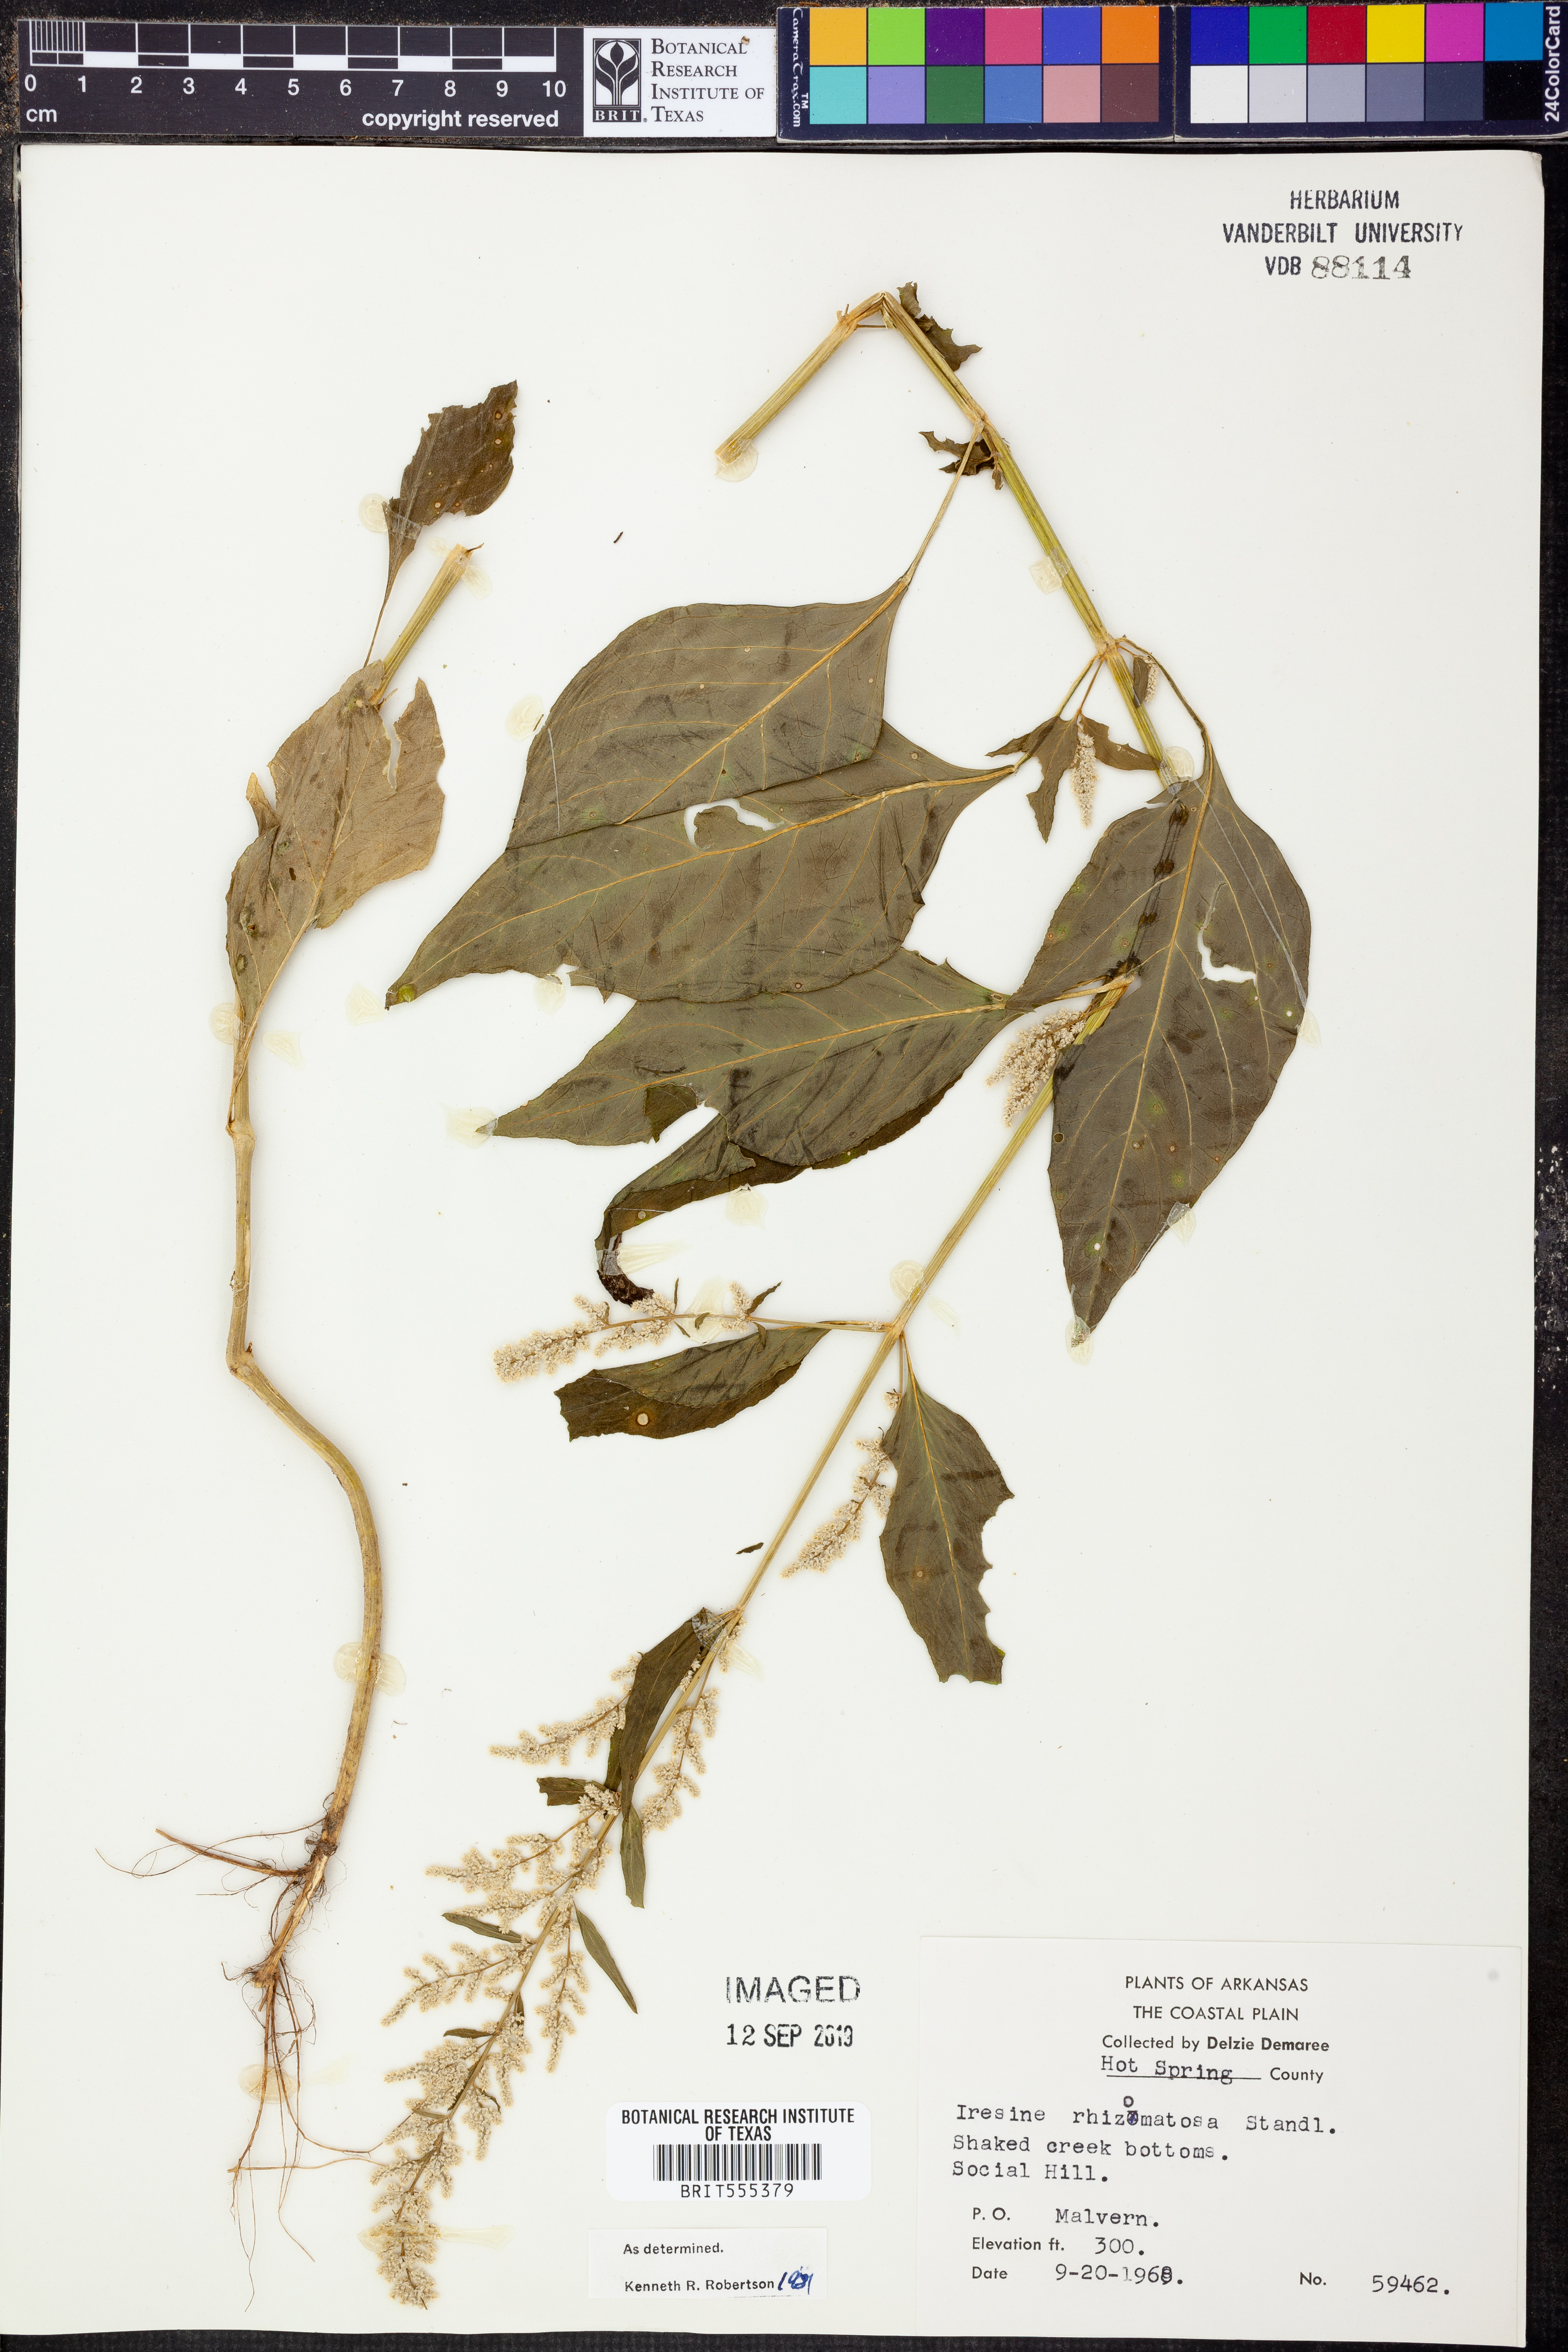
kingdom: Plantae
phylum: Tracheophyta
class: Magnoliopsida
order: Caryophyllales
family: Amaranthaceae
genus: Iresine
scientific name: Iresine rhizomatosa
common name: Juda's-bush
